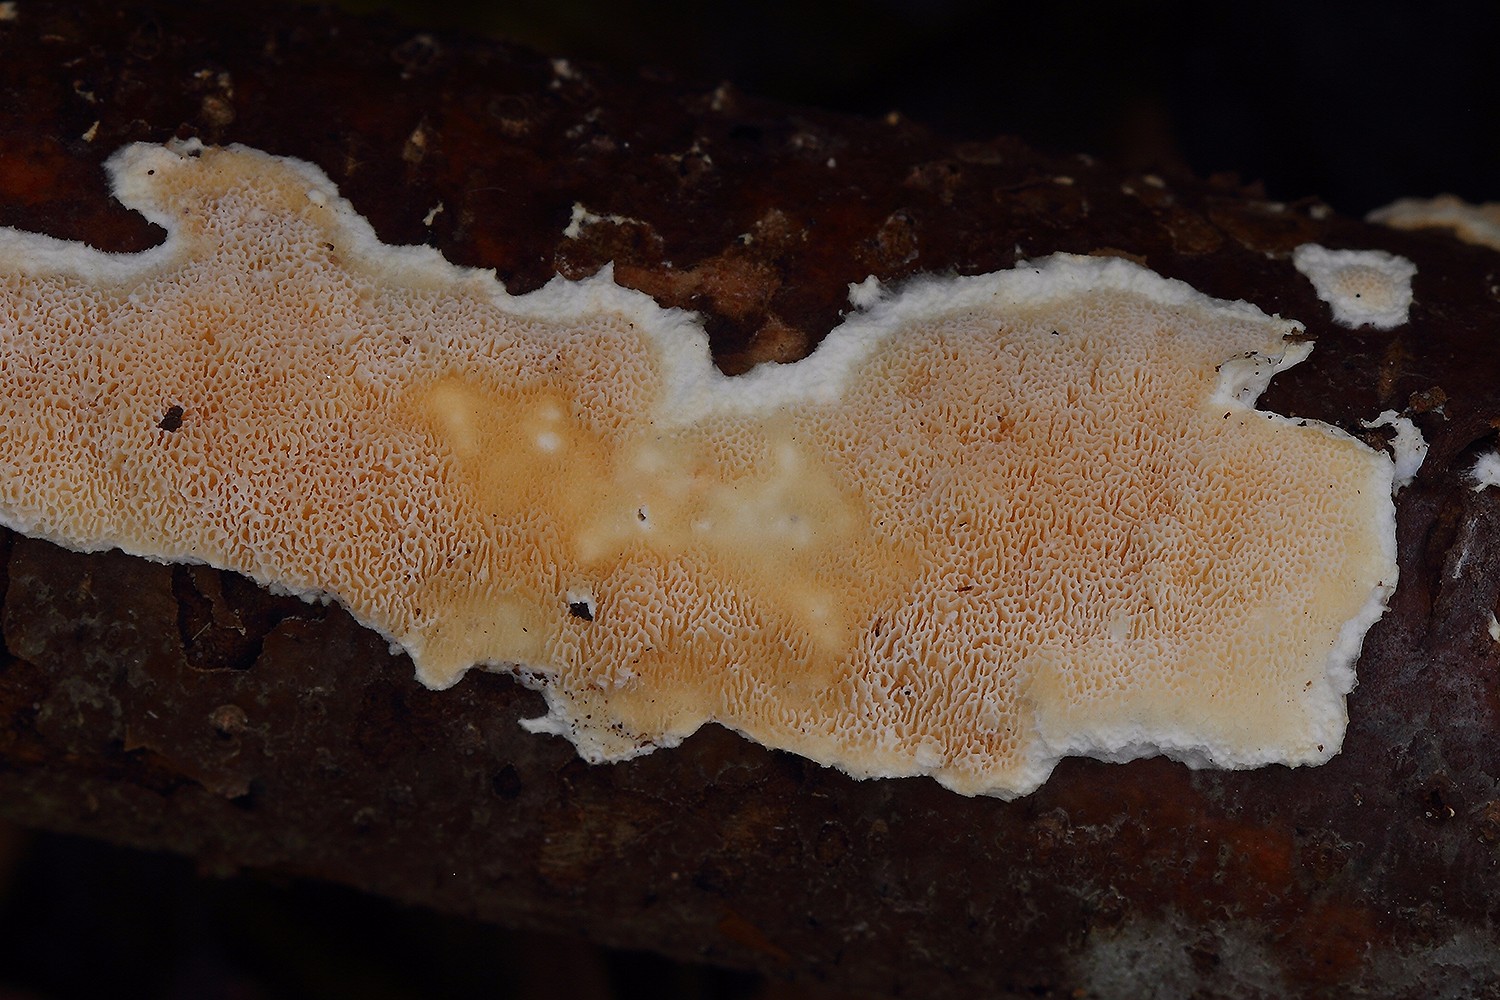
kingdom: Fungi
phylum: Basidiomycota
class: Agaricomycetes
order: Polyporales
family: Steccherinaceae
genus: Junghuhnia
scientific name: Junghuhnia nitida
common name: almindelig skønporesvamp
